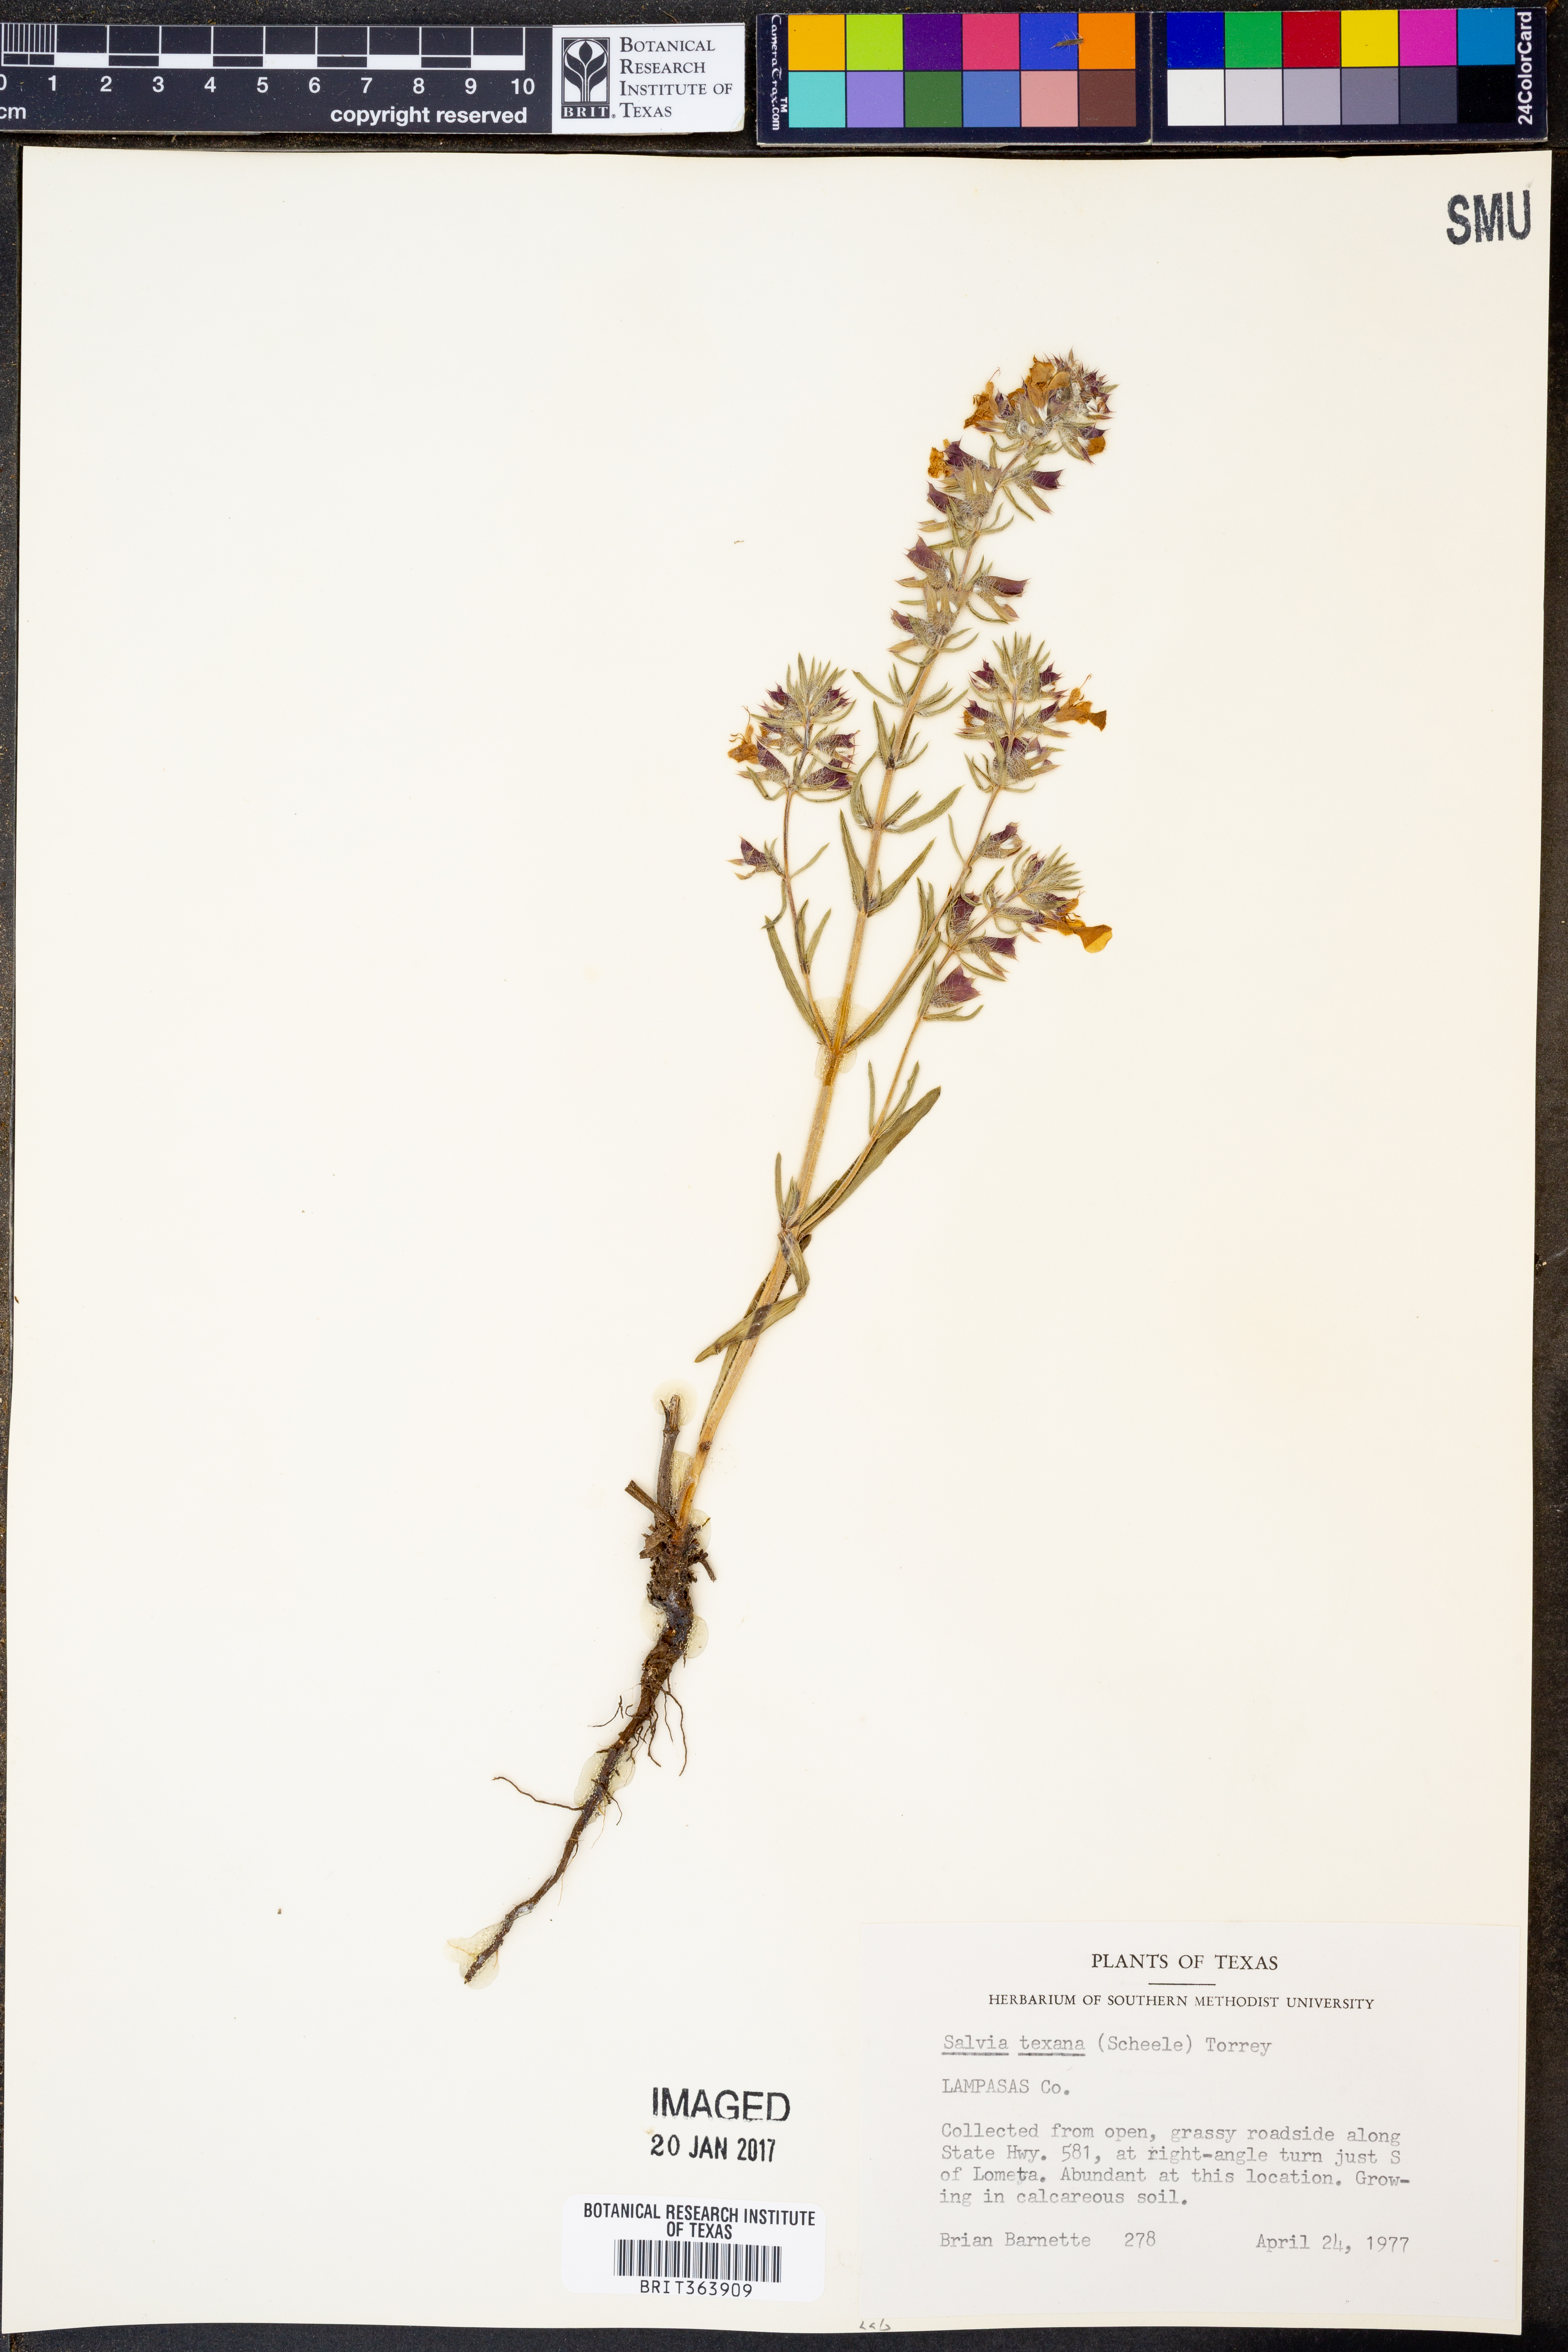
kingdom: Plantae
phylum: Tracheophyta
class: Magnoliopsida
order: Lamiales
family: Lamiaceae
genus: Salvia
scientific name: Salvia texana
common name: Texas sage
